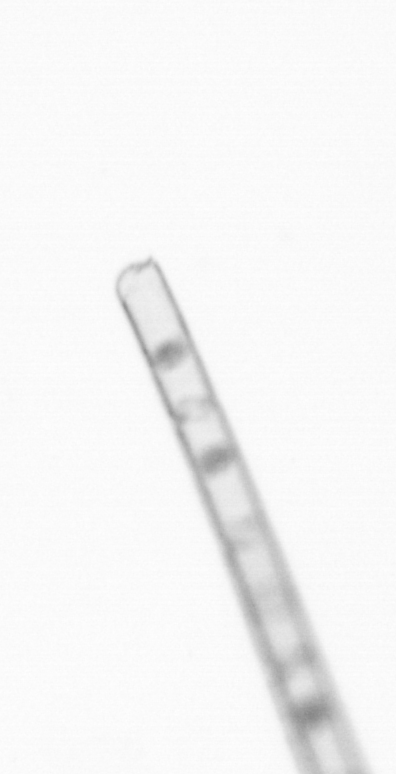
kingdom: Chromista
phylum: Ochrophyta
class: Bacillariophyceae
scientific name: Bacillariophyceae
